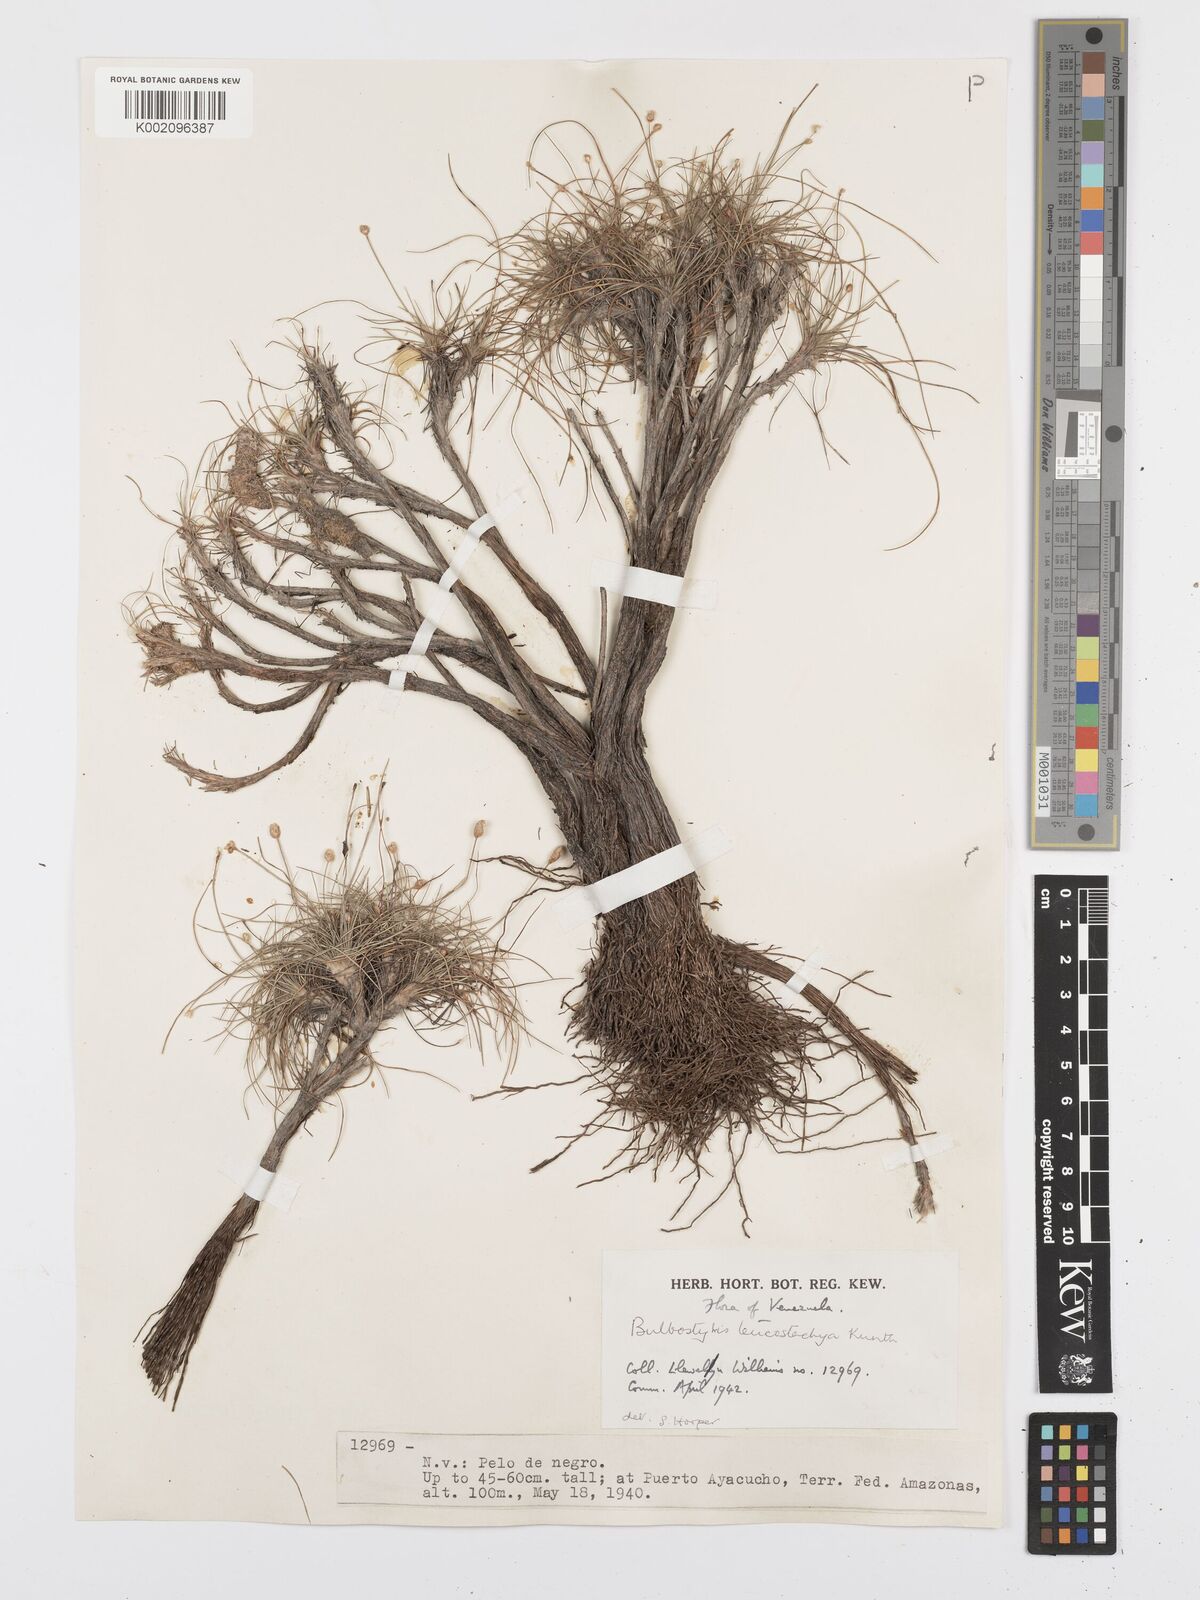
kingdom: Plantae
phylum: Tracheophyta
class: Liliopsida
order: Poales
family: Cyperaceae
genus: Bulbostylis
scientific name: Bulbostylis leucostachya
